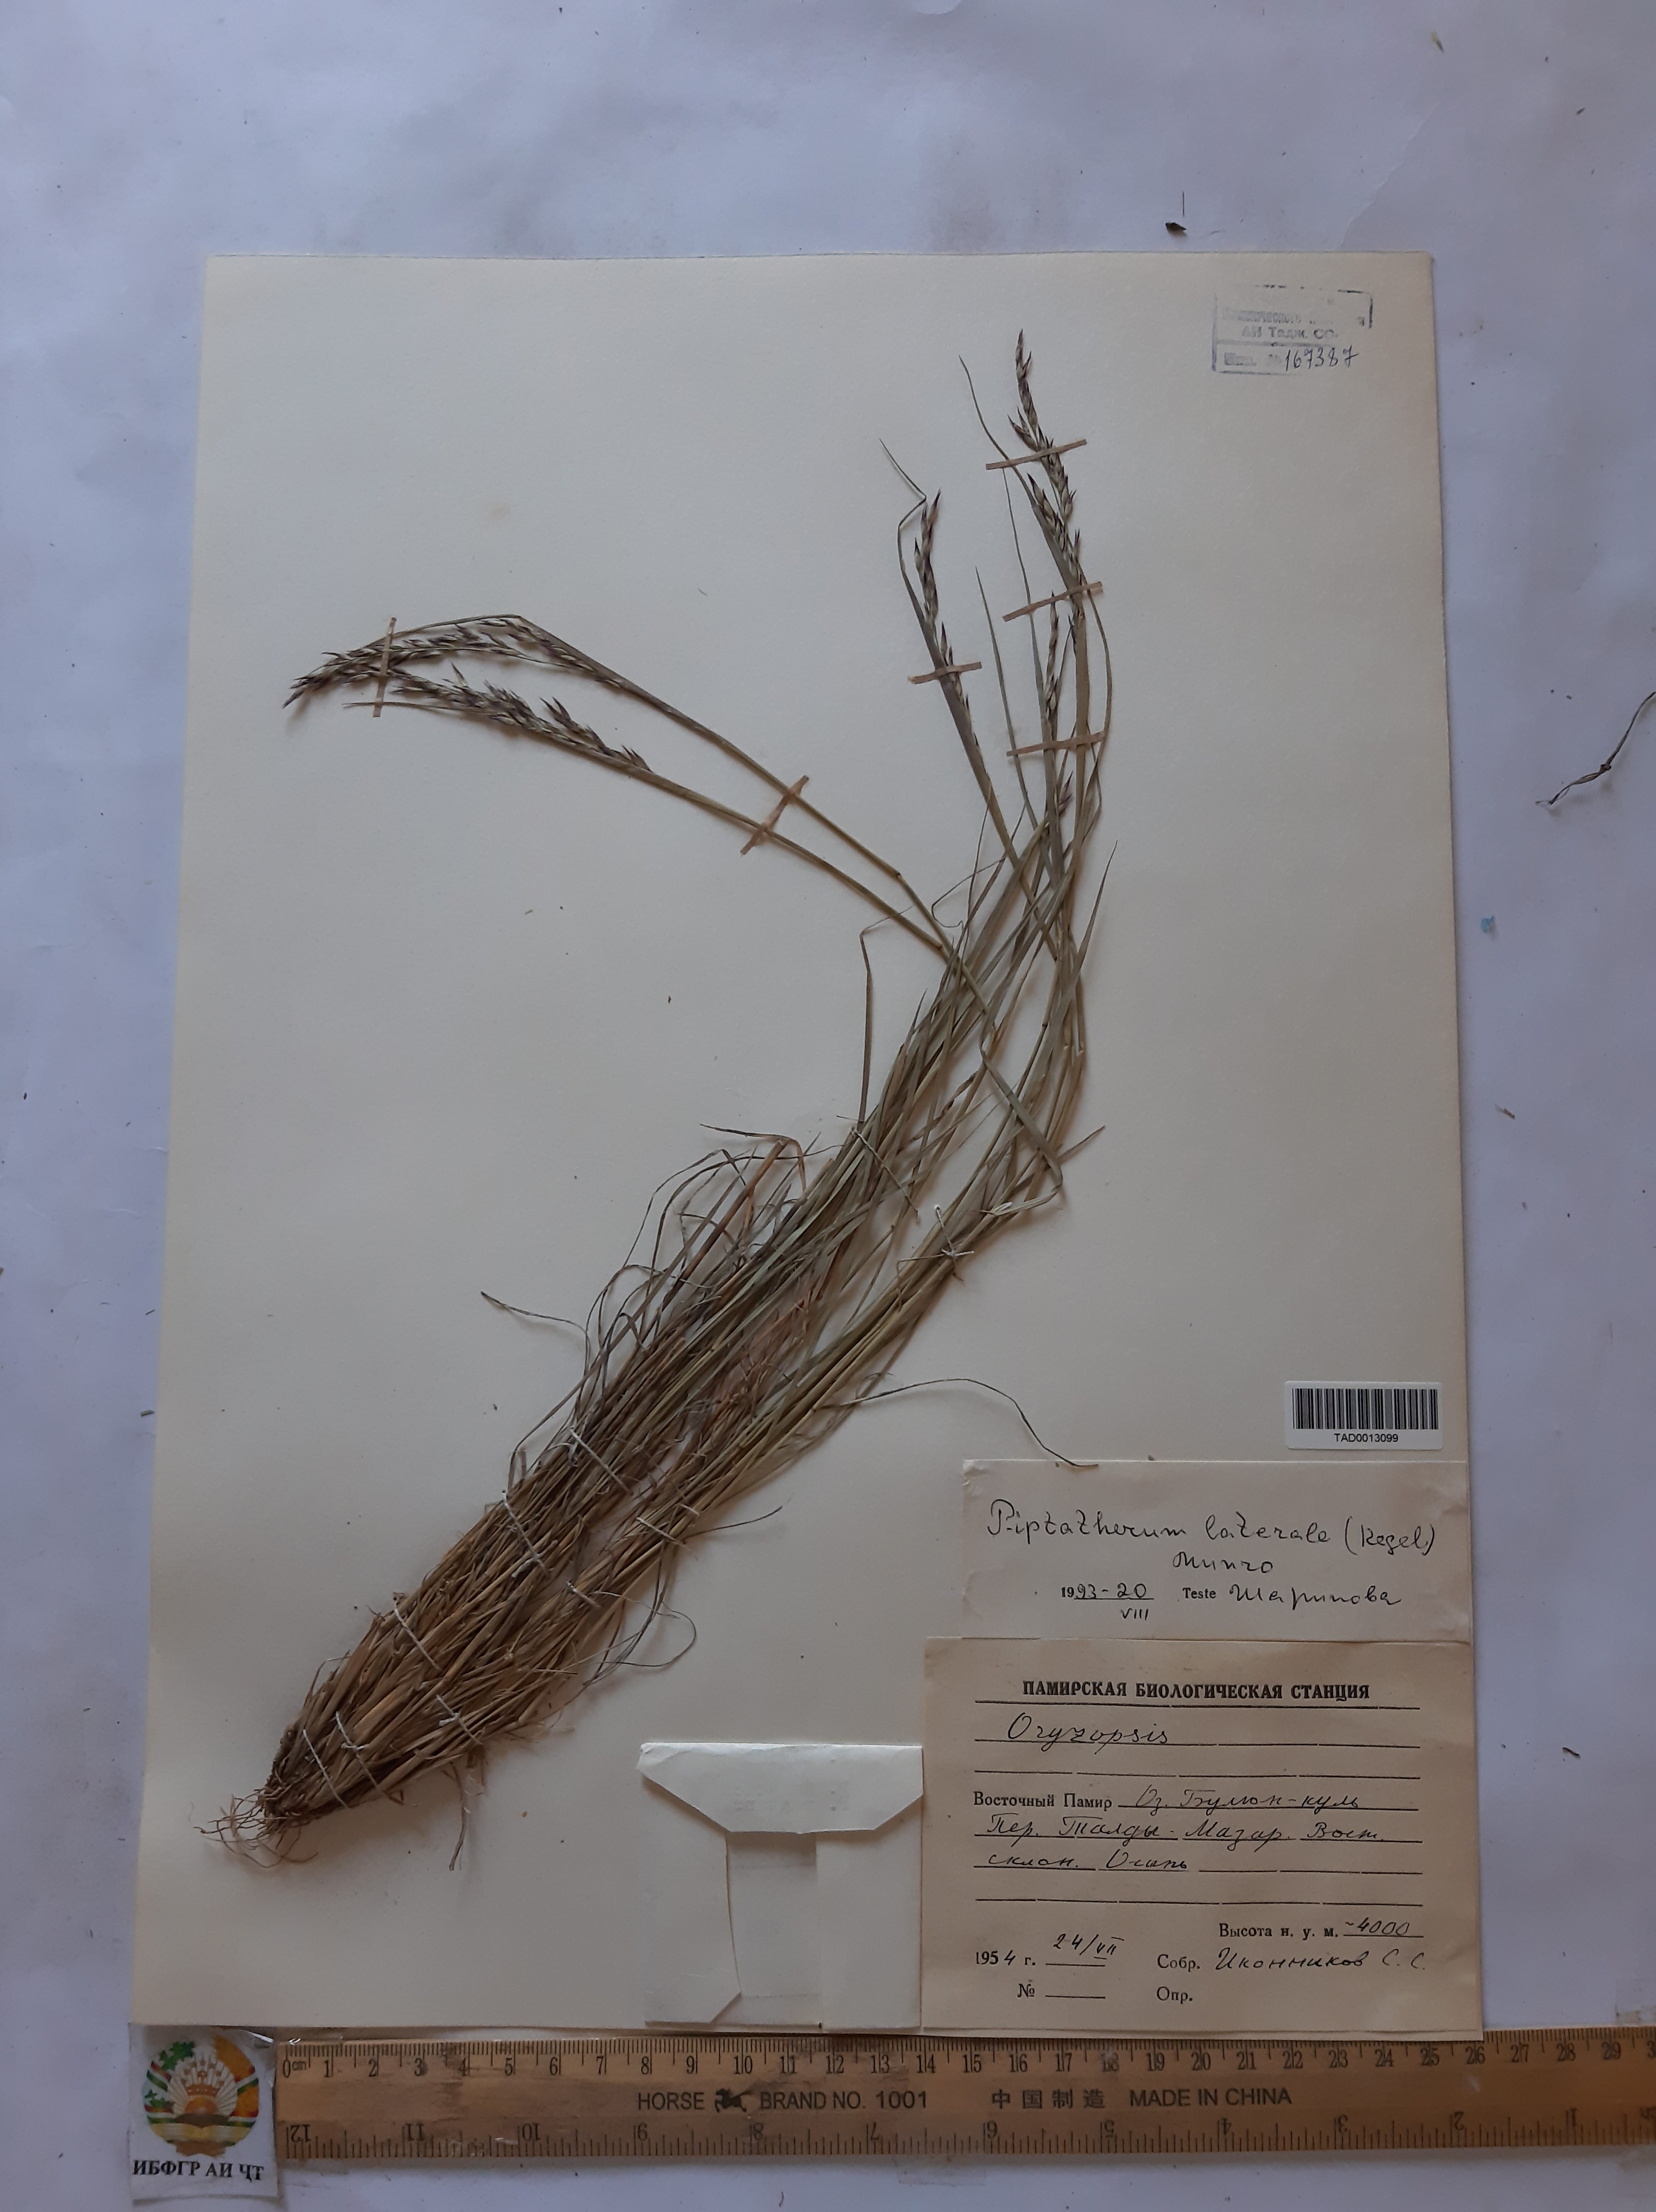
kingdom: Plantae
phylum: Tracheophyta
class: Liliopsida
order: Poales
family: Poaceae
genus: Piptatherum
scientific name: Piptatherum laterale
